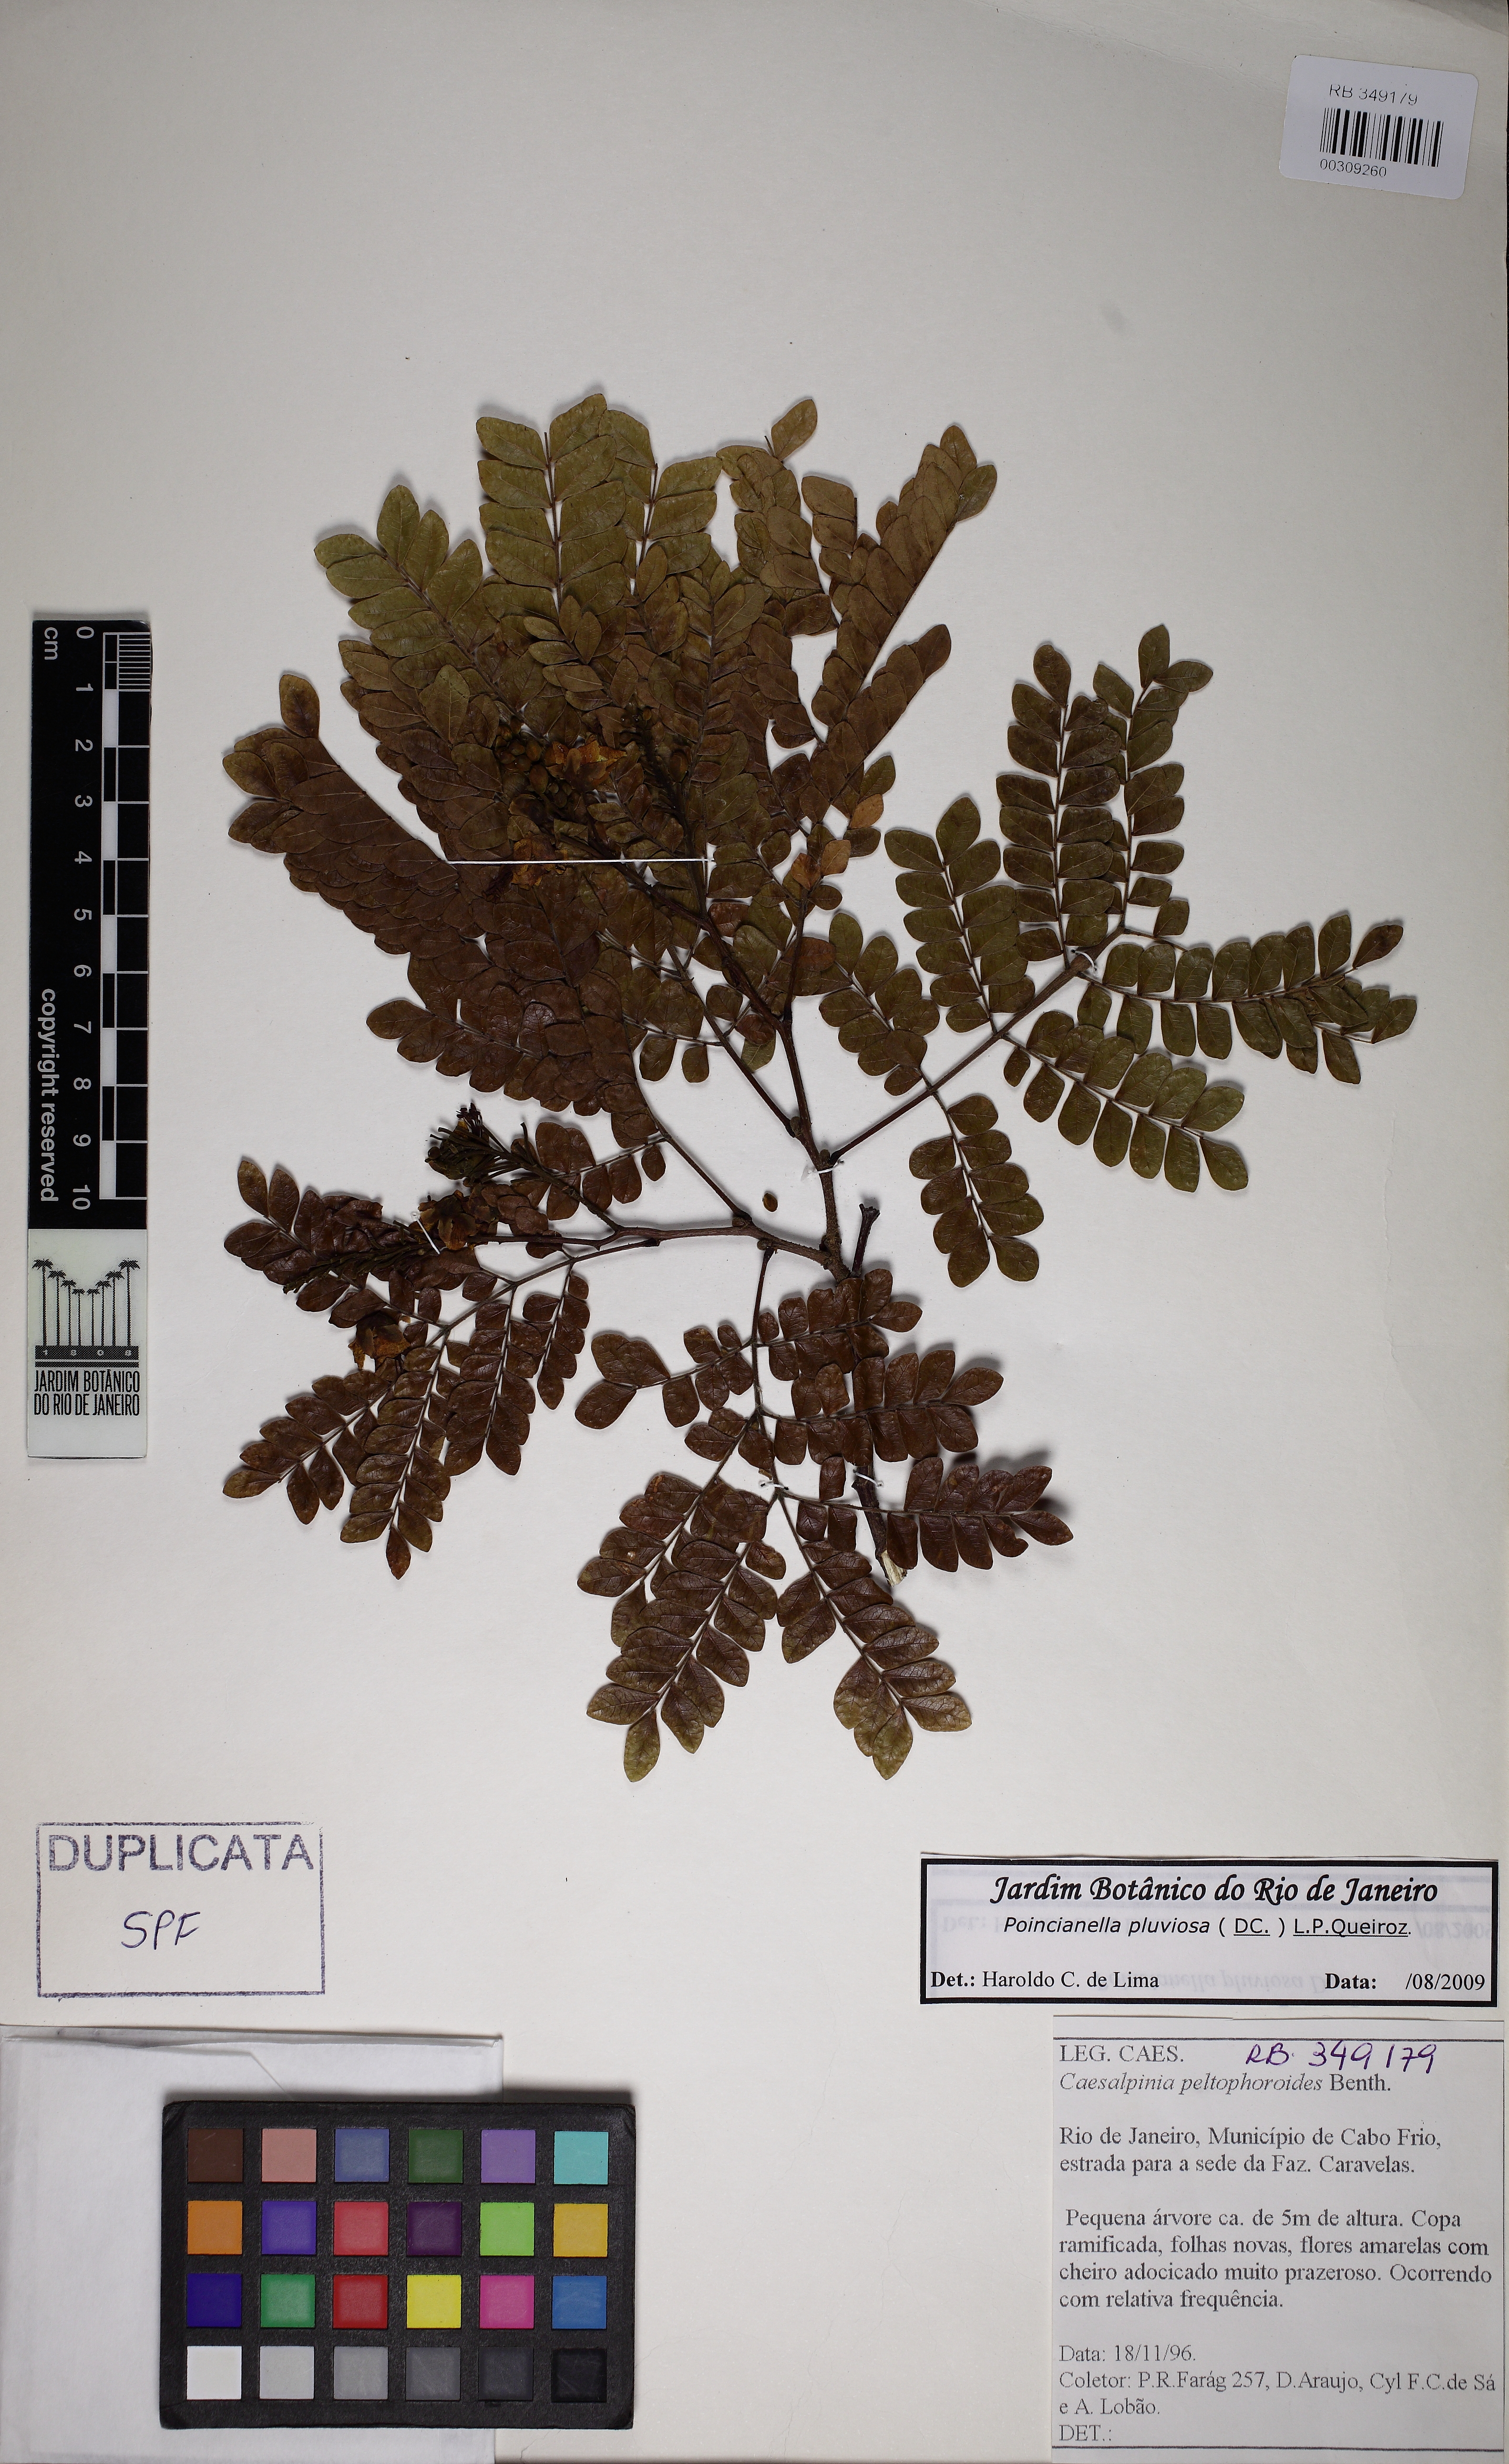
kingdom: Plantae
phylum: Tracheophyta
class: Magnoliopsida
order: Fabales
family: Fabaceae
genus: Cenostigma
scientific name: Cenostigma pluviosum
